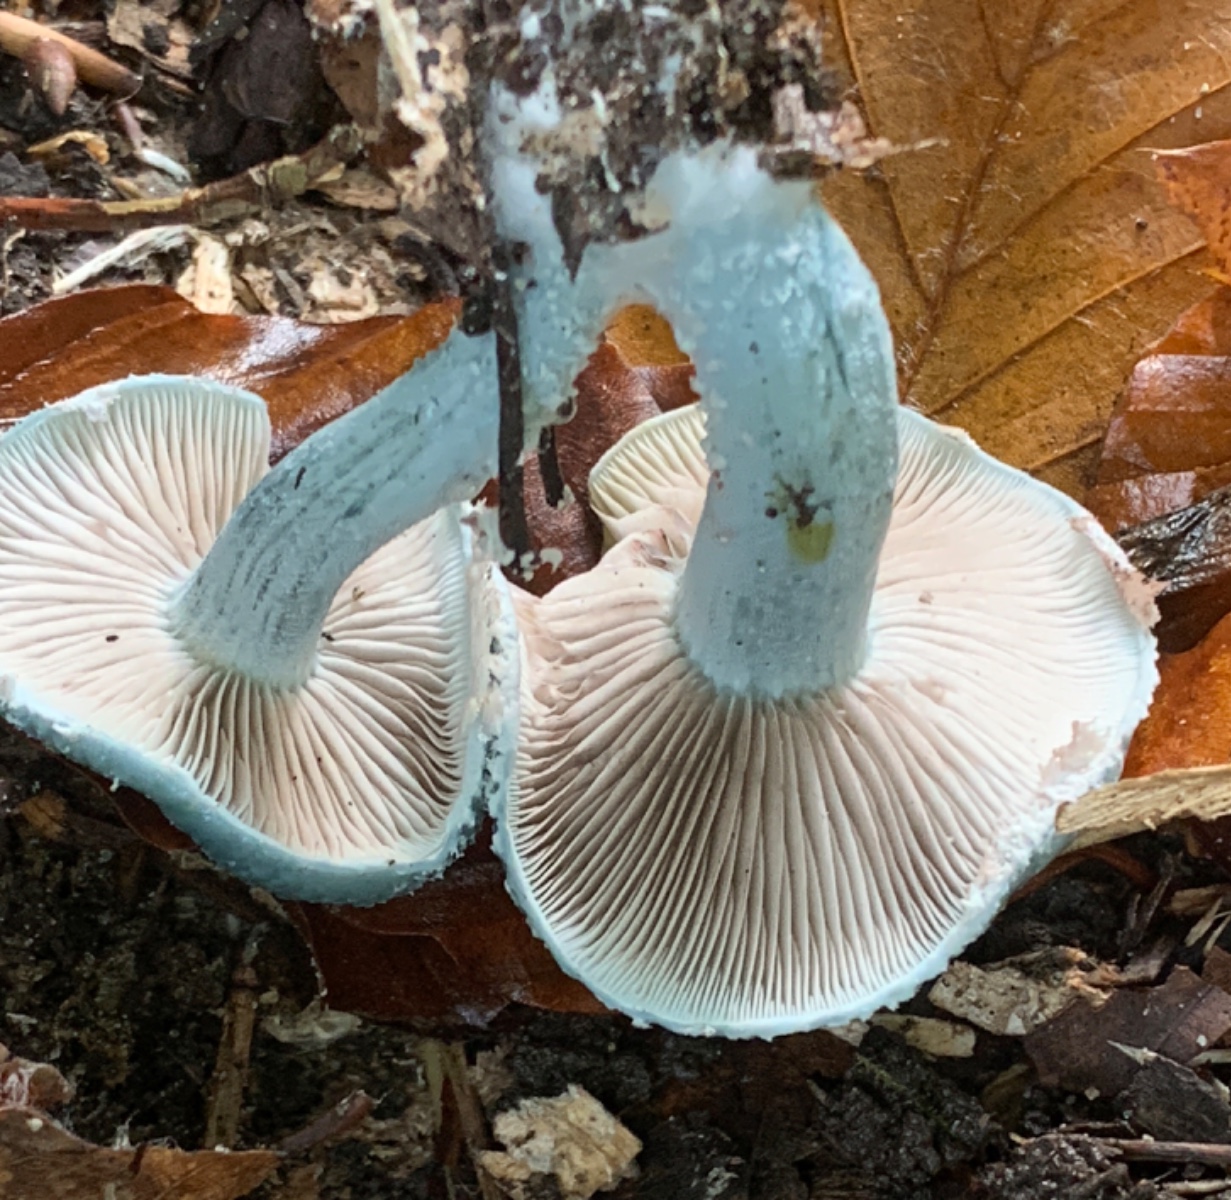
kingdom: Fungi
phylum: Basidiomycota
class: Agaricomycetes
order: Agaricales
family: Strophariaceae
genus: Stropharia
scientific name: Stropharia cyanea
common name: blågrøn bredblad
